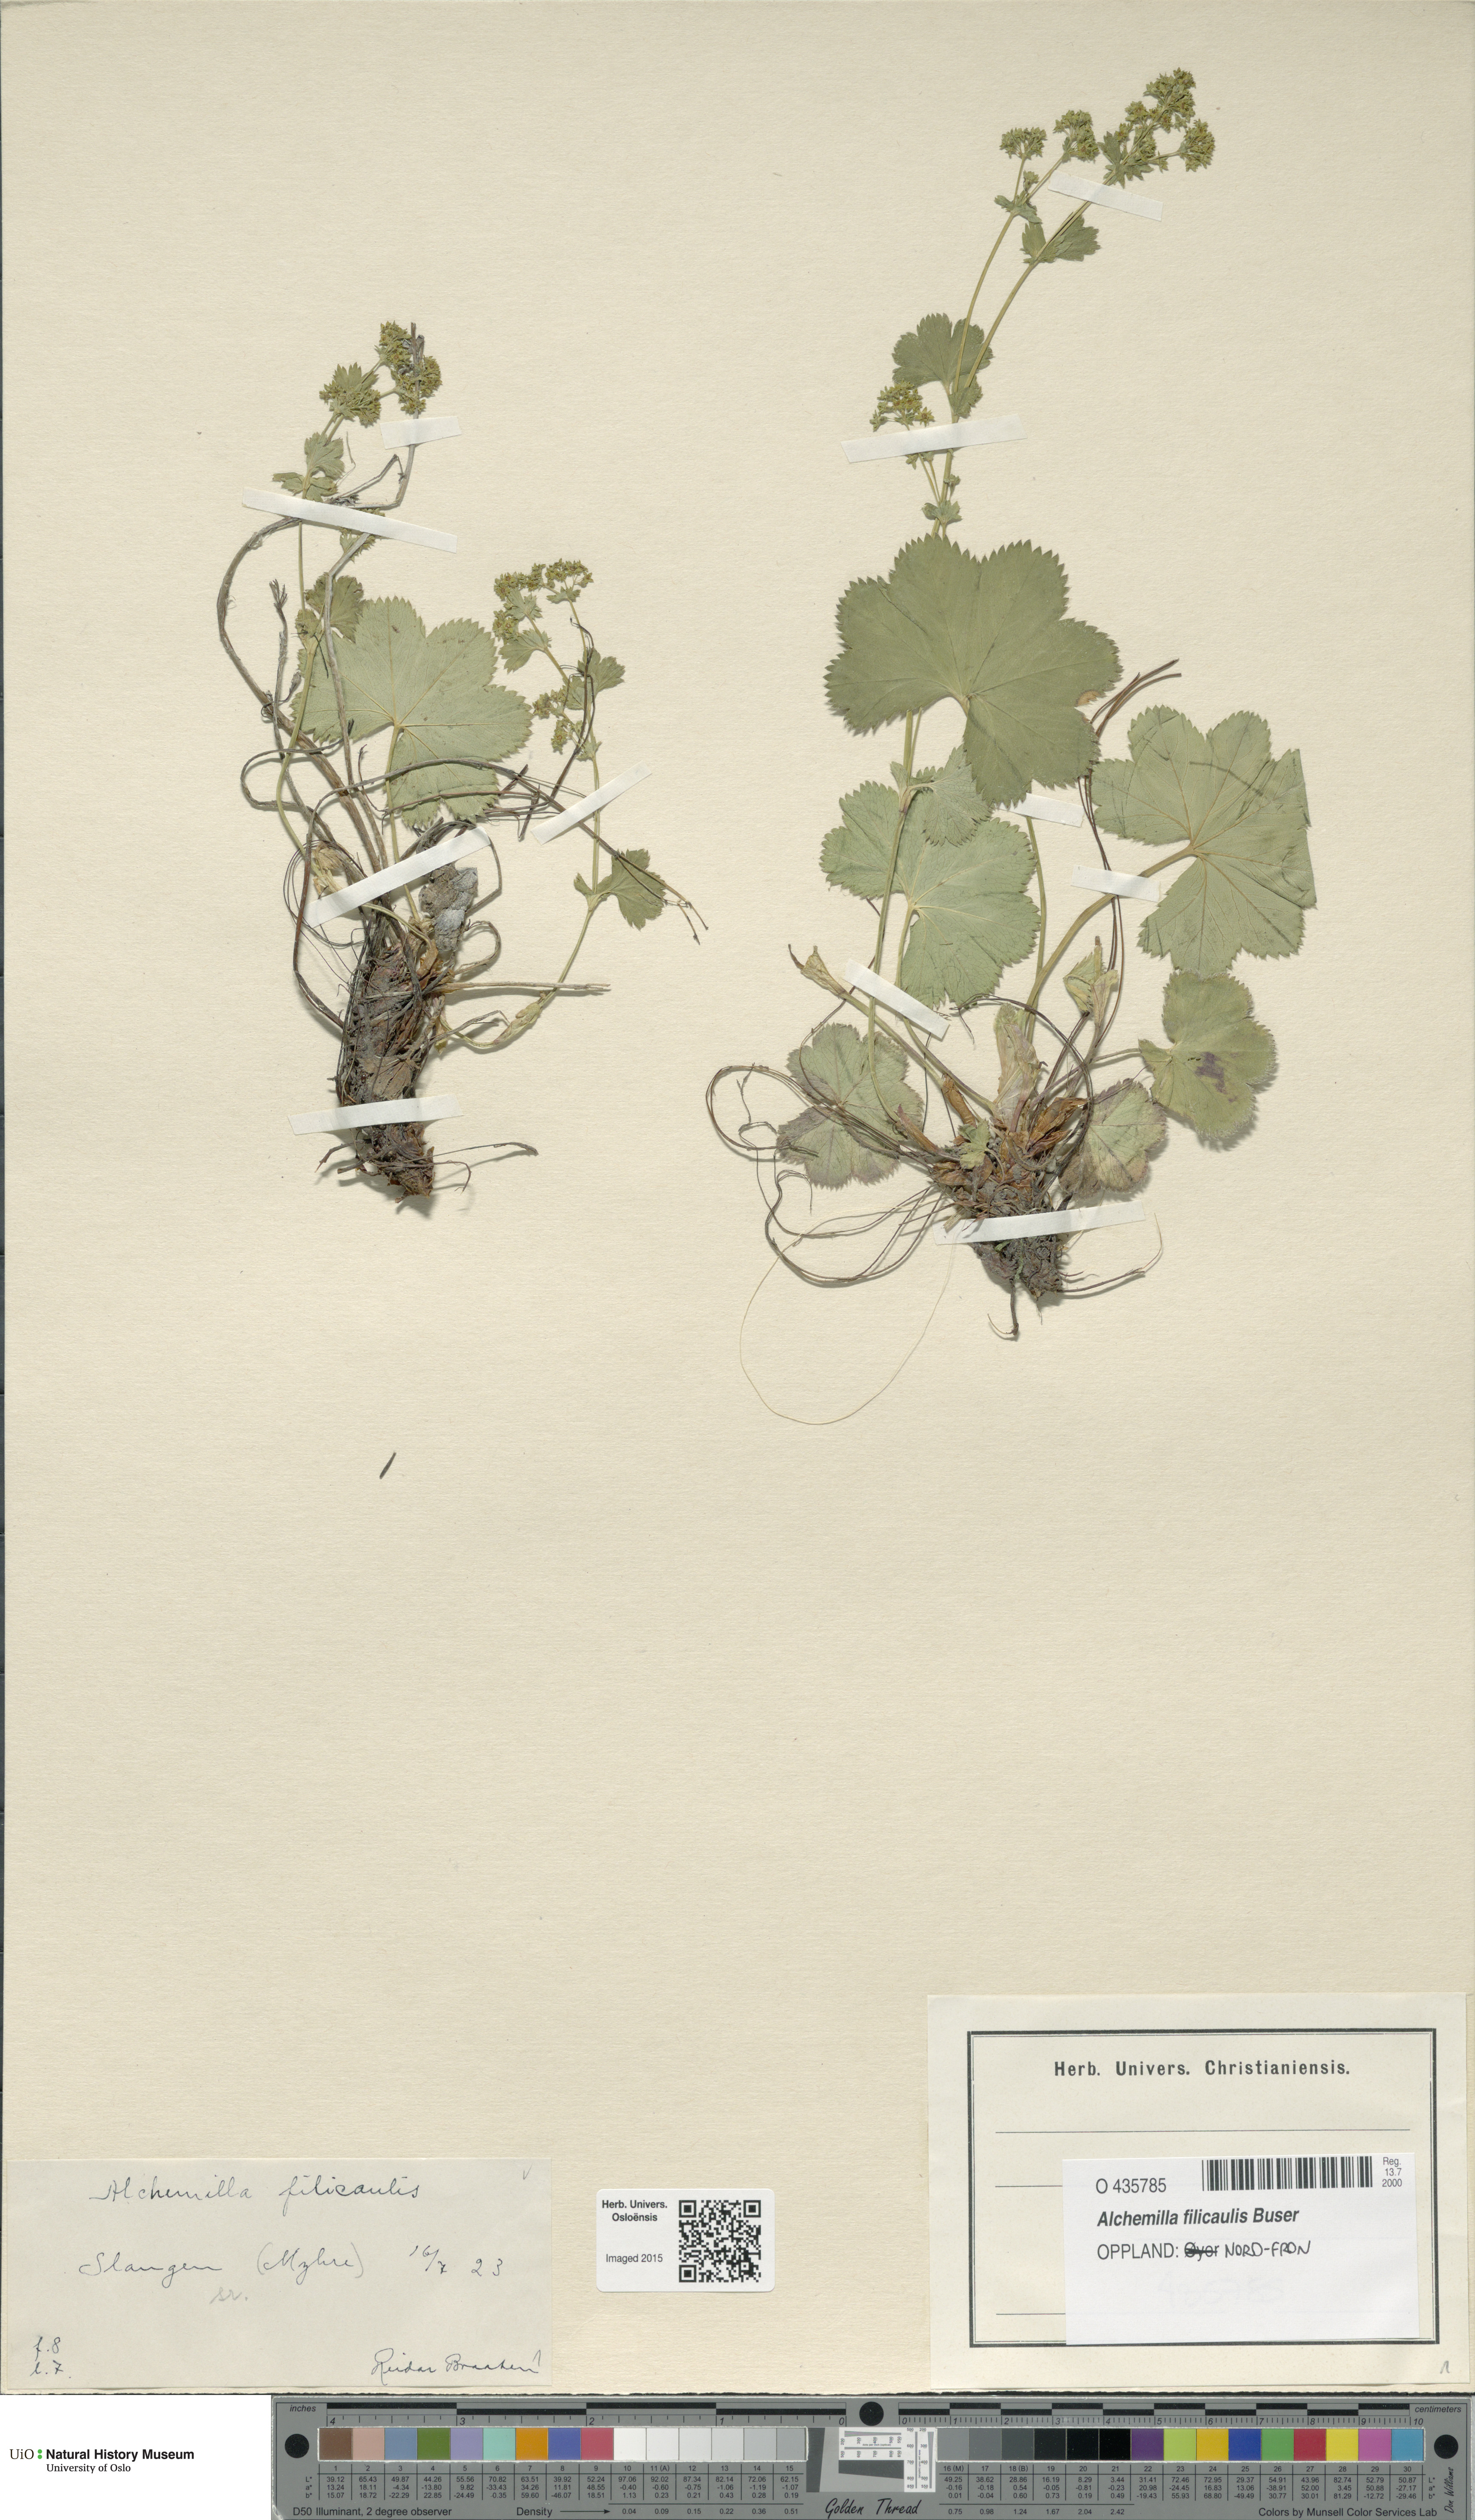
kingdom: Plantae
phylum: Tracheophyta
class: Magnoliopsida
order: Rosales
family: Rosaceae
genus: Alchemilla
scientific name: Alchemilla filicaulis
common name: Hairy lady's-mantle
